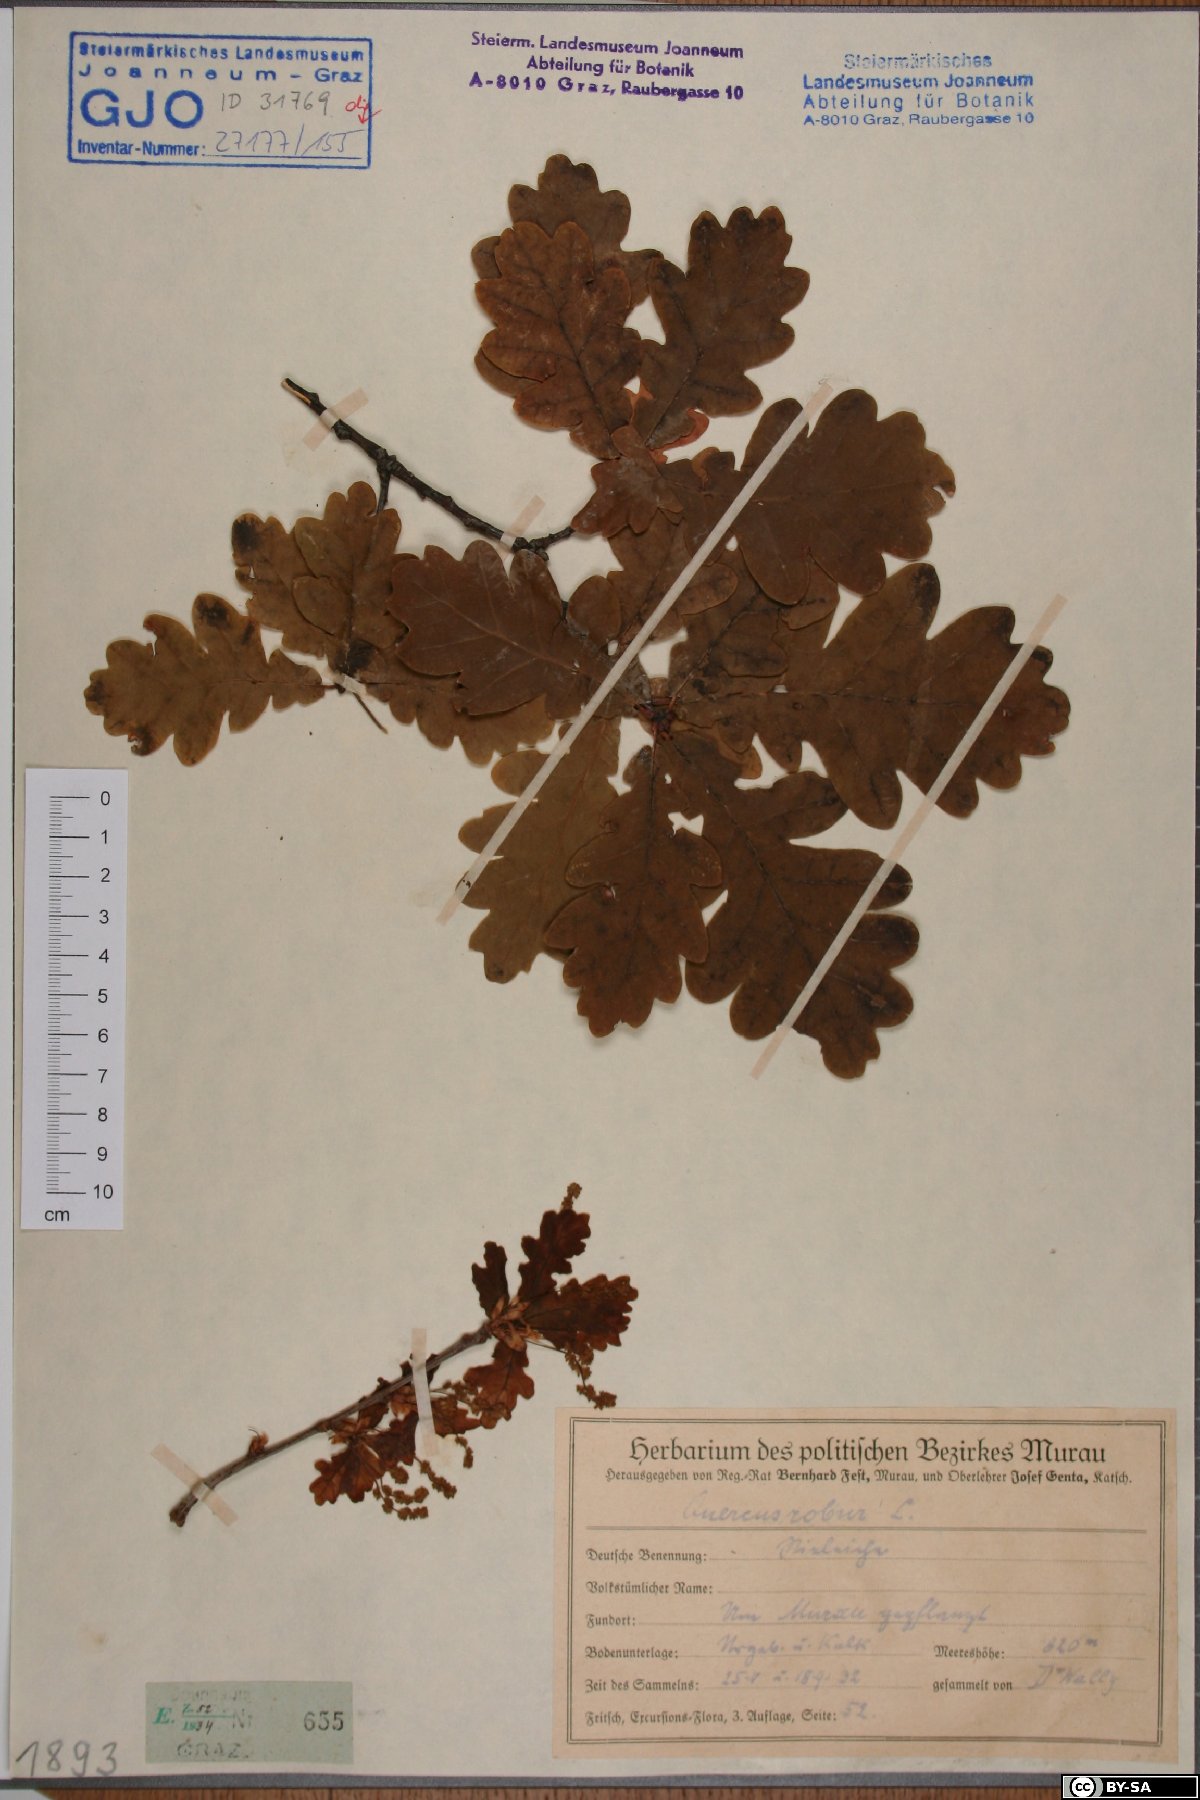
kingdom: Plantae
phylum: Tracheophyta
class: Magnoliopsida
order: Fagales
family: Fagaceae
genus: Quercus
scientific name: Quercus robur
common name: Pedunculate oak
